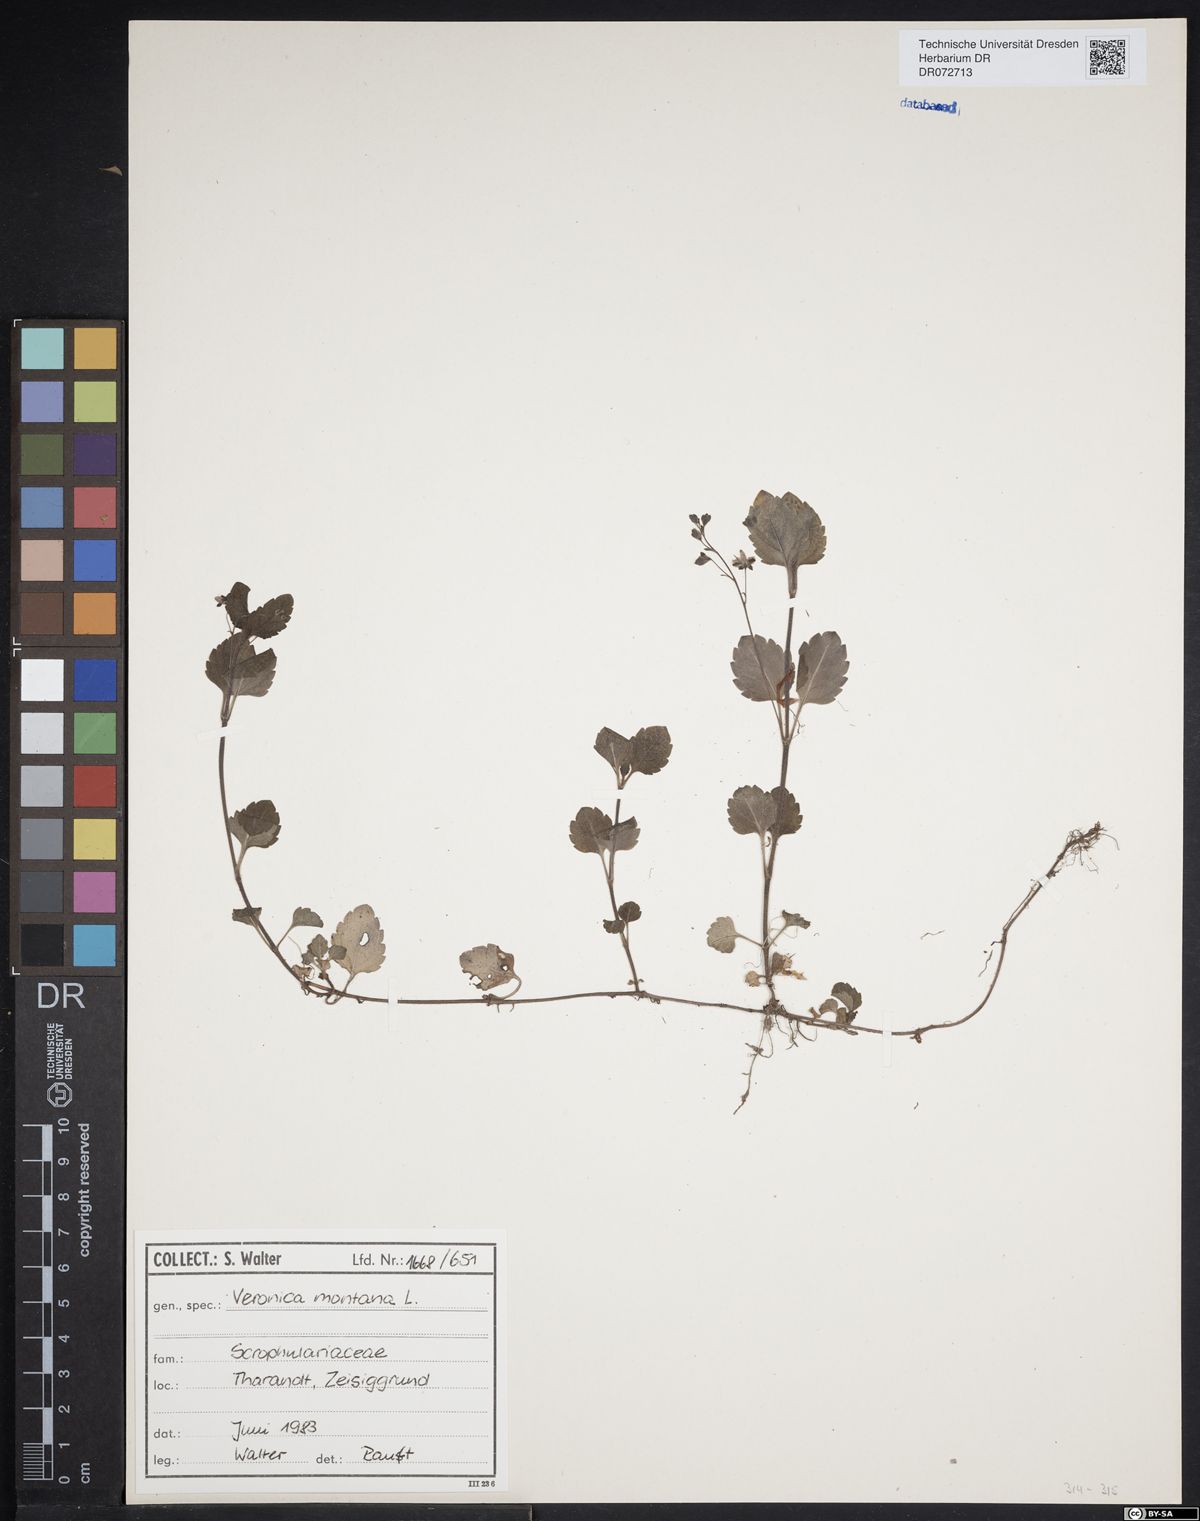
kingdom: Plantae
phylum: Tracheophyta
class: Magnoliopsida
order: Lamiales
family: Plantaginaceae
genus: Veronica
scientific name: Veronica montana
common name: Wood speedwell
